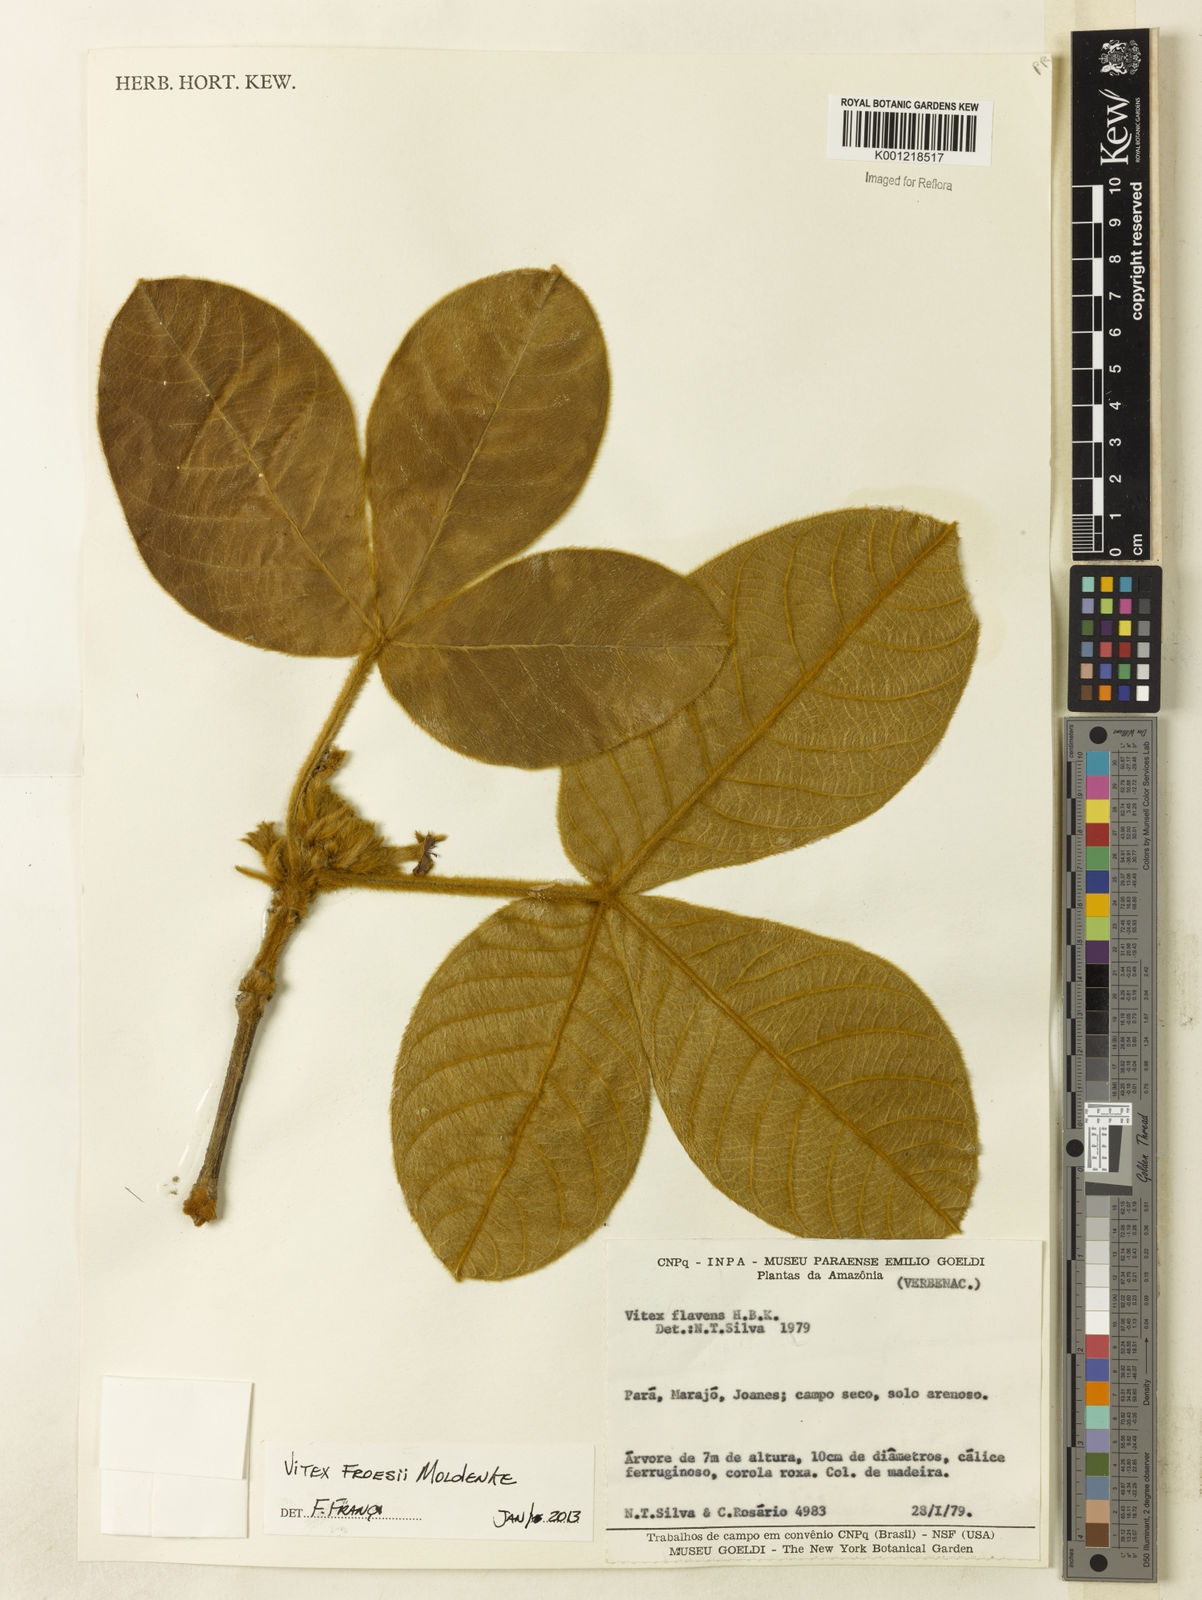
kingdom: Plantae
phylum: Tracheophyta
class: Magnoliopsida
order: Lamiales
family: Lamiaceae
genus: Vitex
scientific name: Vitex flavens
